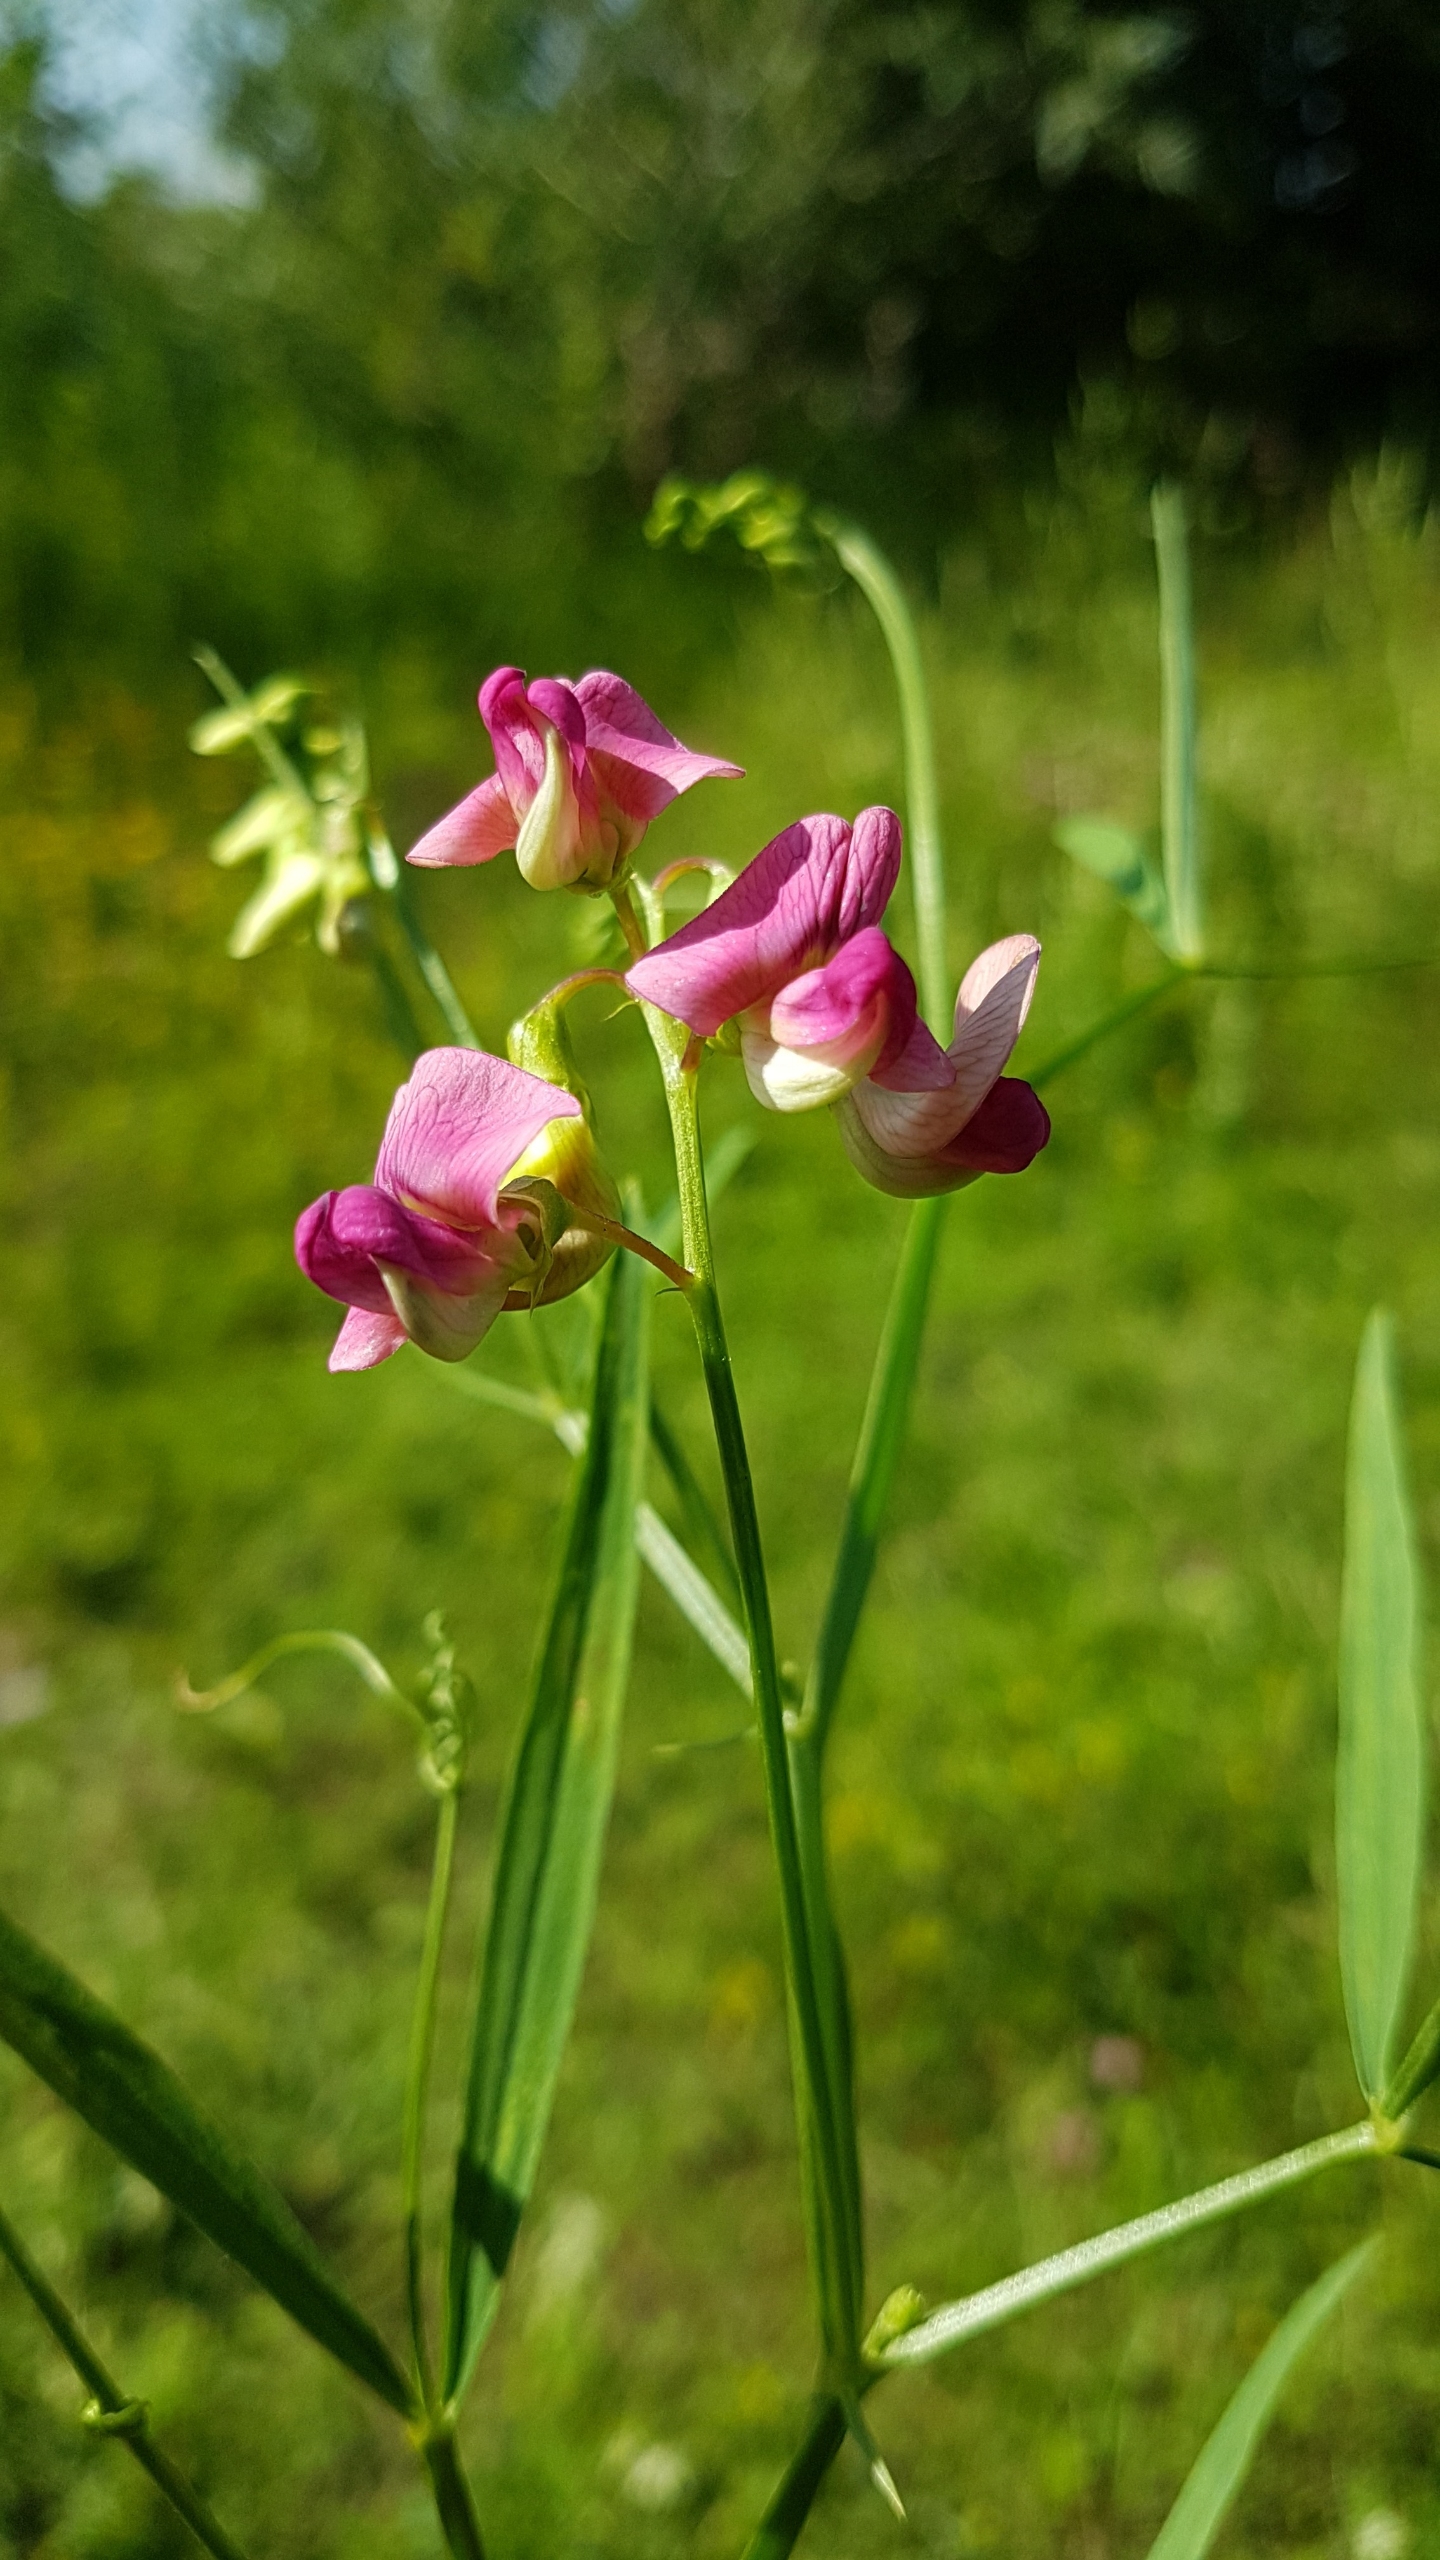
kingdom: Plantae
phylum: Tracheophyta
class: Magnoliopsida
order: Fabales
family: Fabaceae
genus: Lathyrus
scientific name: Lathyrus sylvestris
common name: Skov-fladbælg
